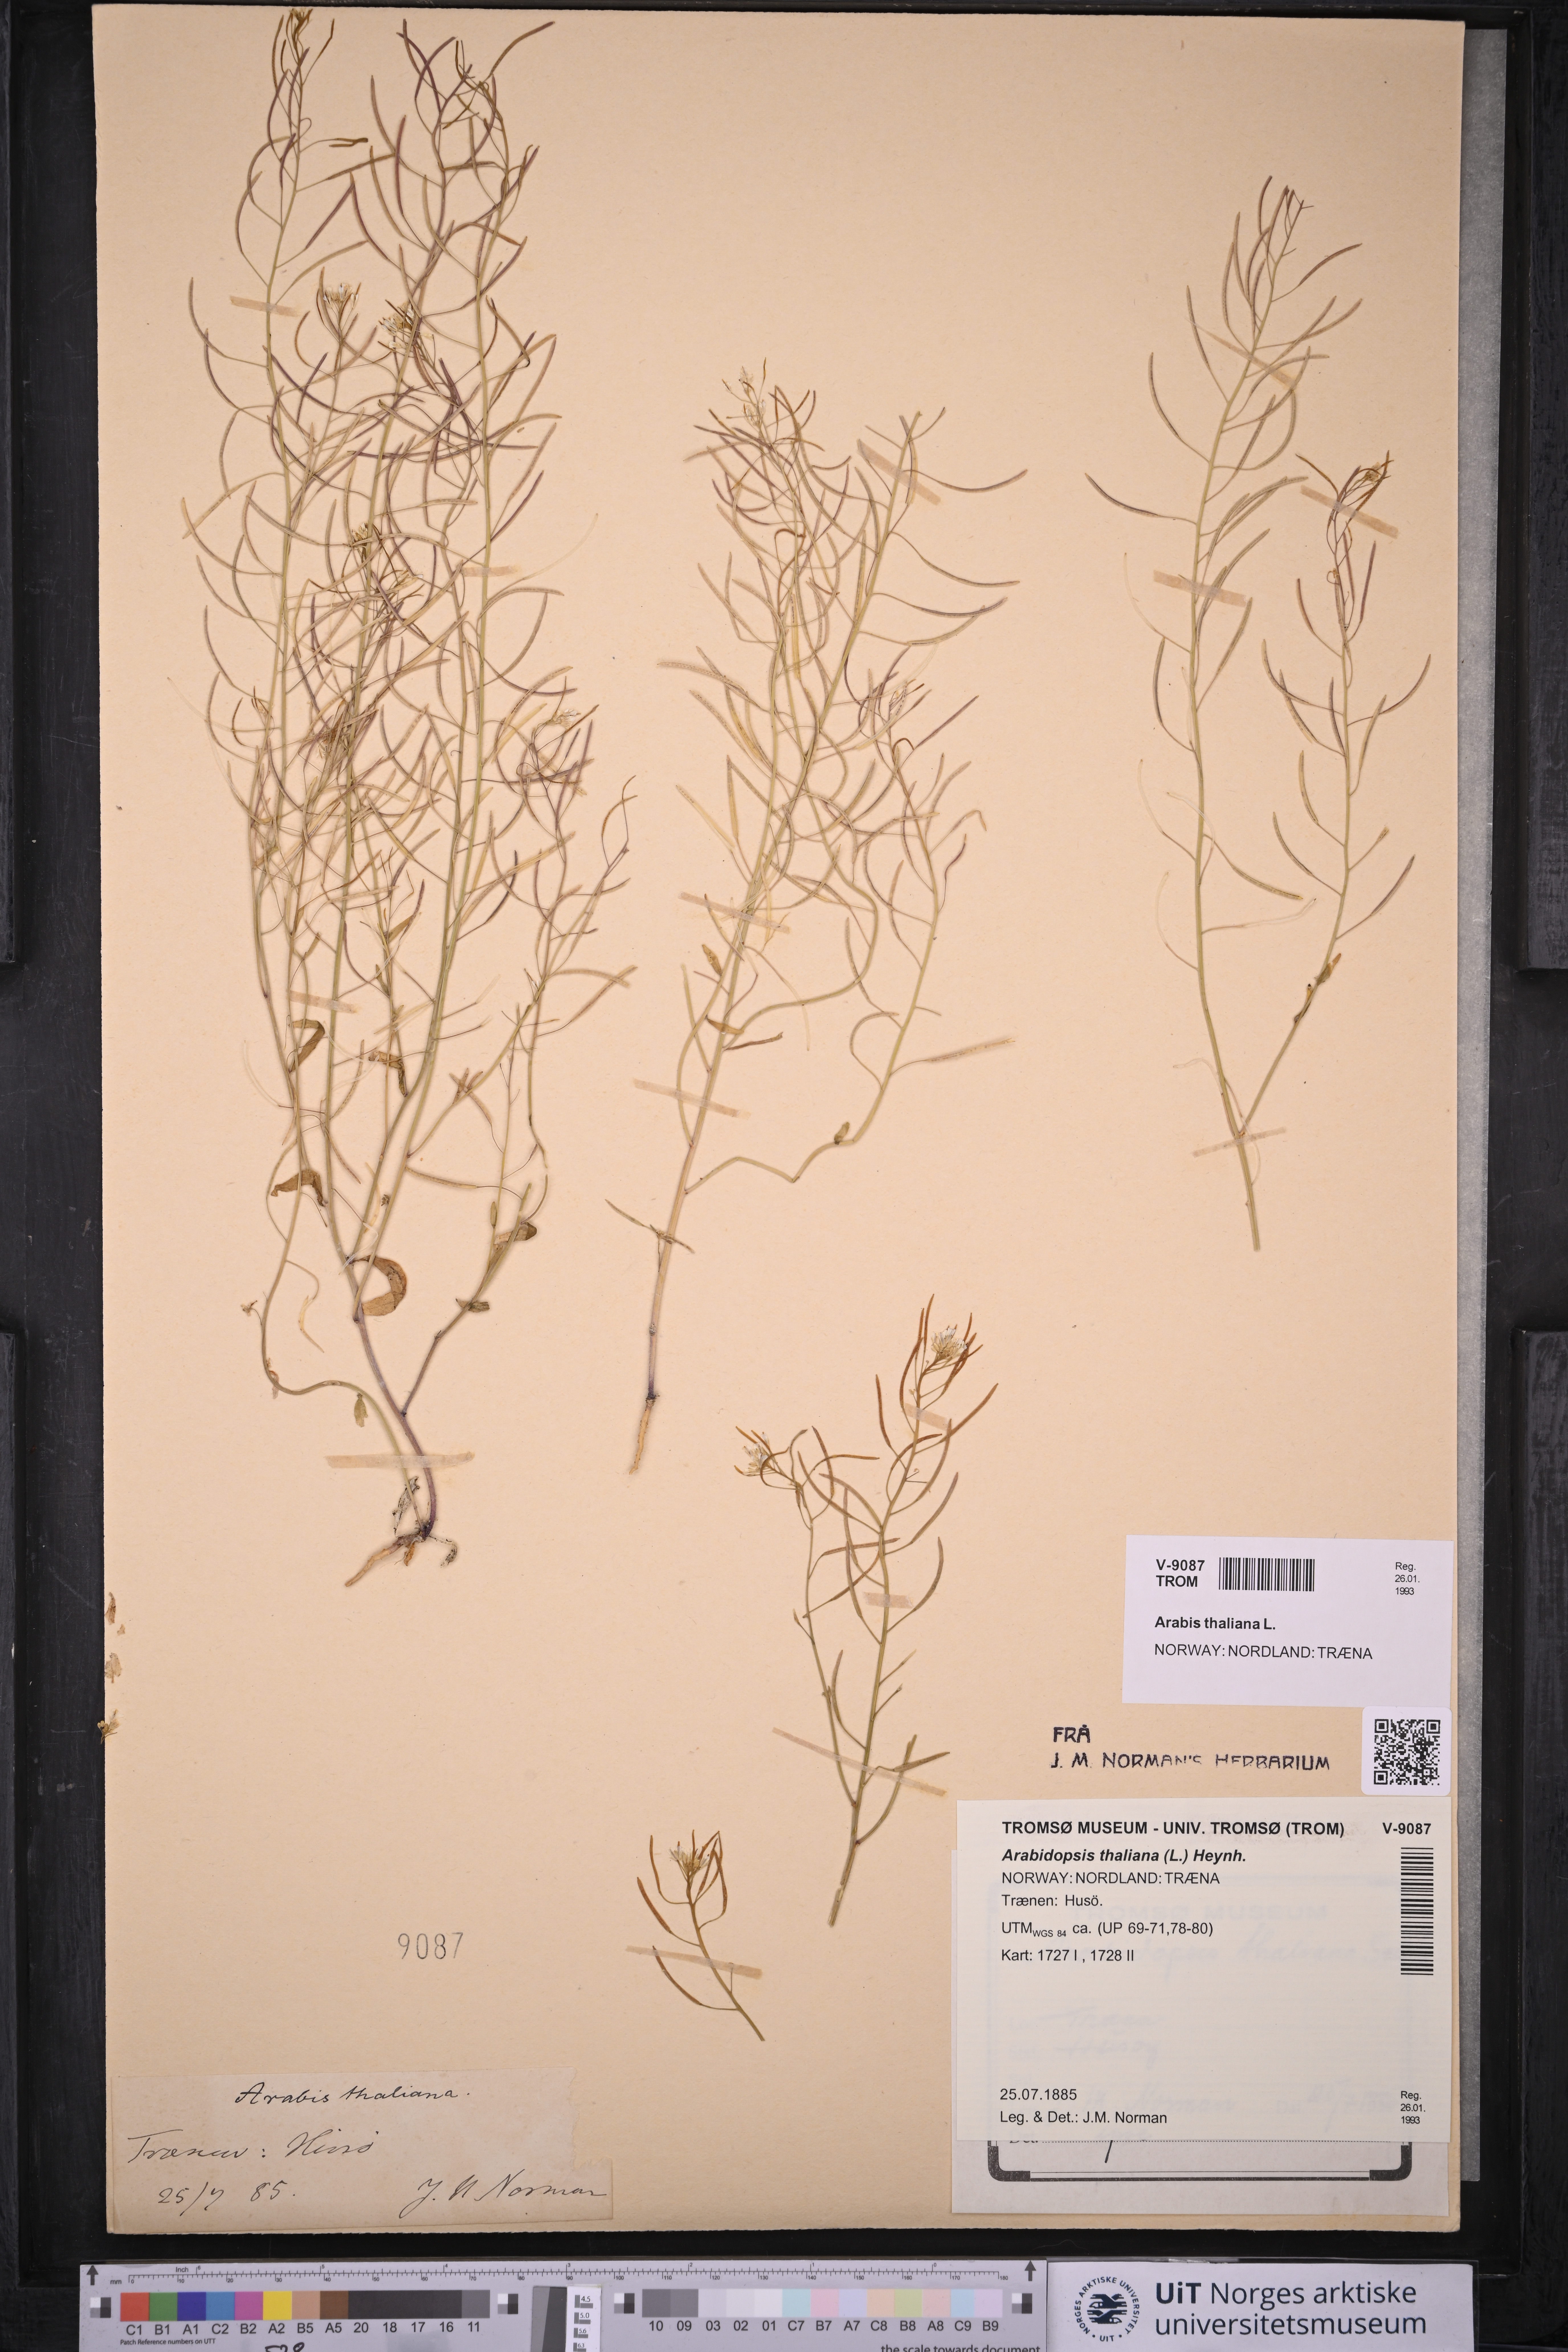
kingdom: Plantae
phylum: Tracheophyta
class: Magnoliopsida
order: Brassicales
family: Brassicaceae
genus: Arabidopsis
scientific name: Arabidopsis thaliana
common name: Thale cress
